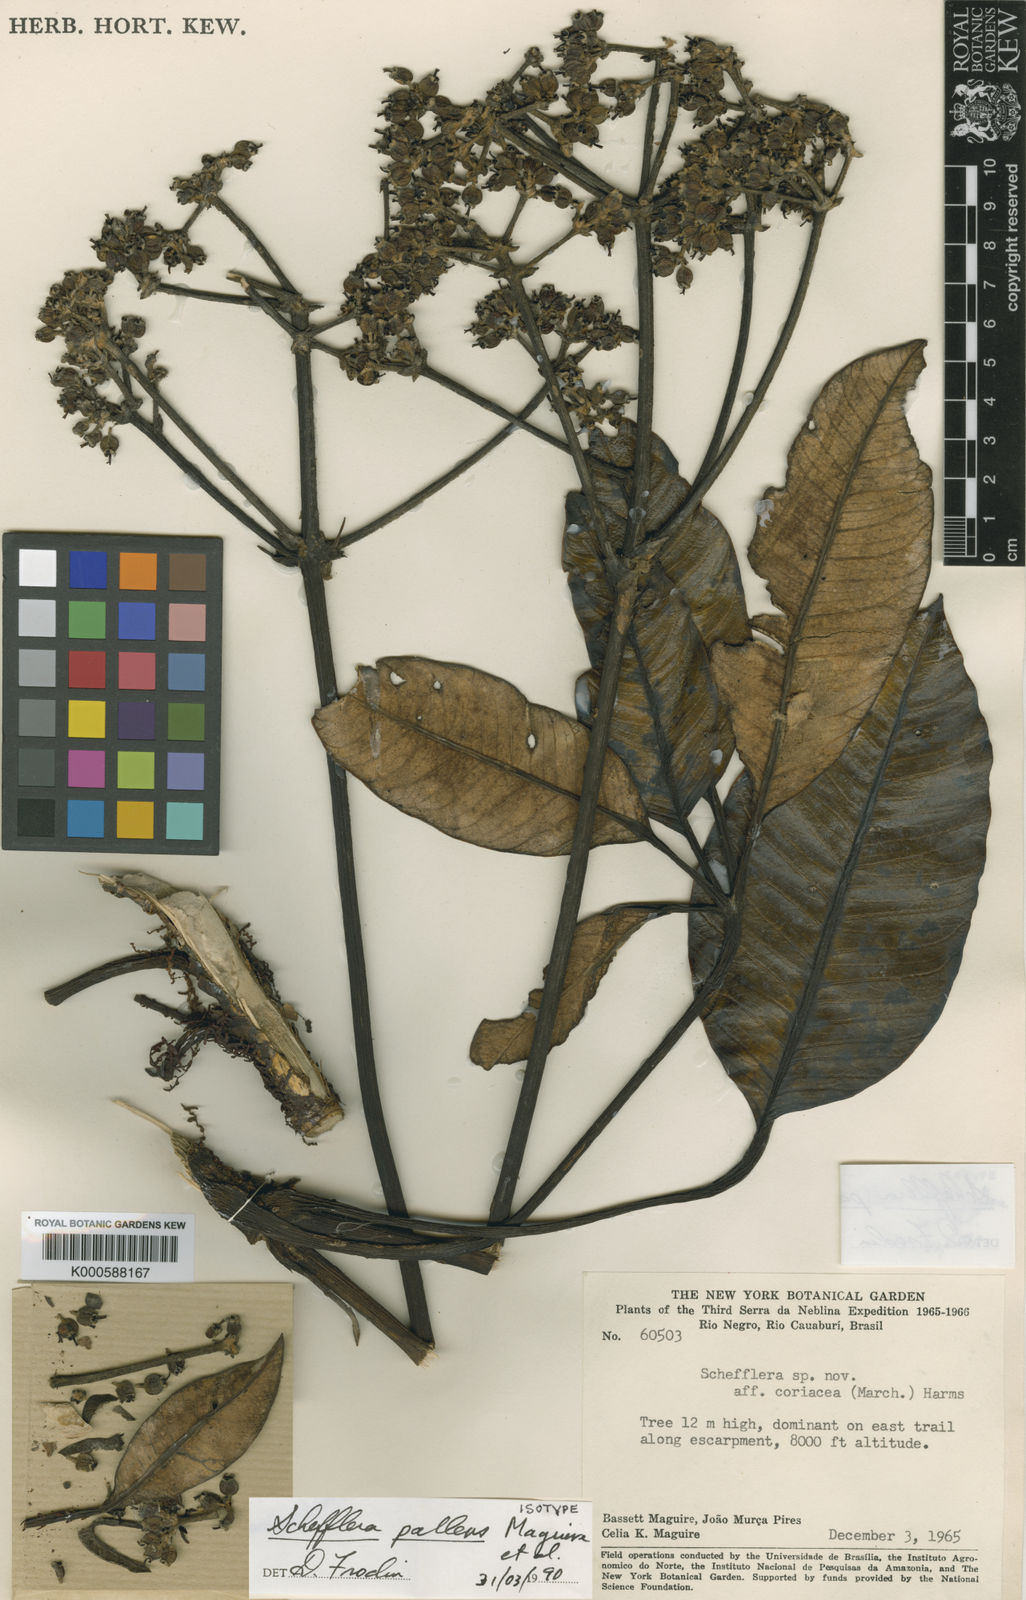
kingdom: Plantae
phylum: Tracheophyta
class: Magnoliopsida
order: Apiales
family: Araliaceae
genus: Crepinella
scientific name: Crepinella
